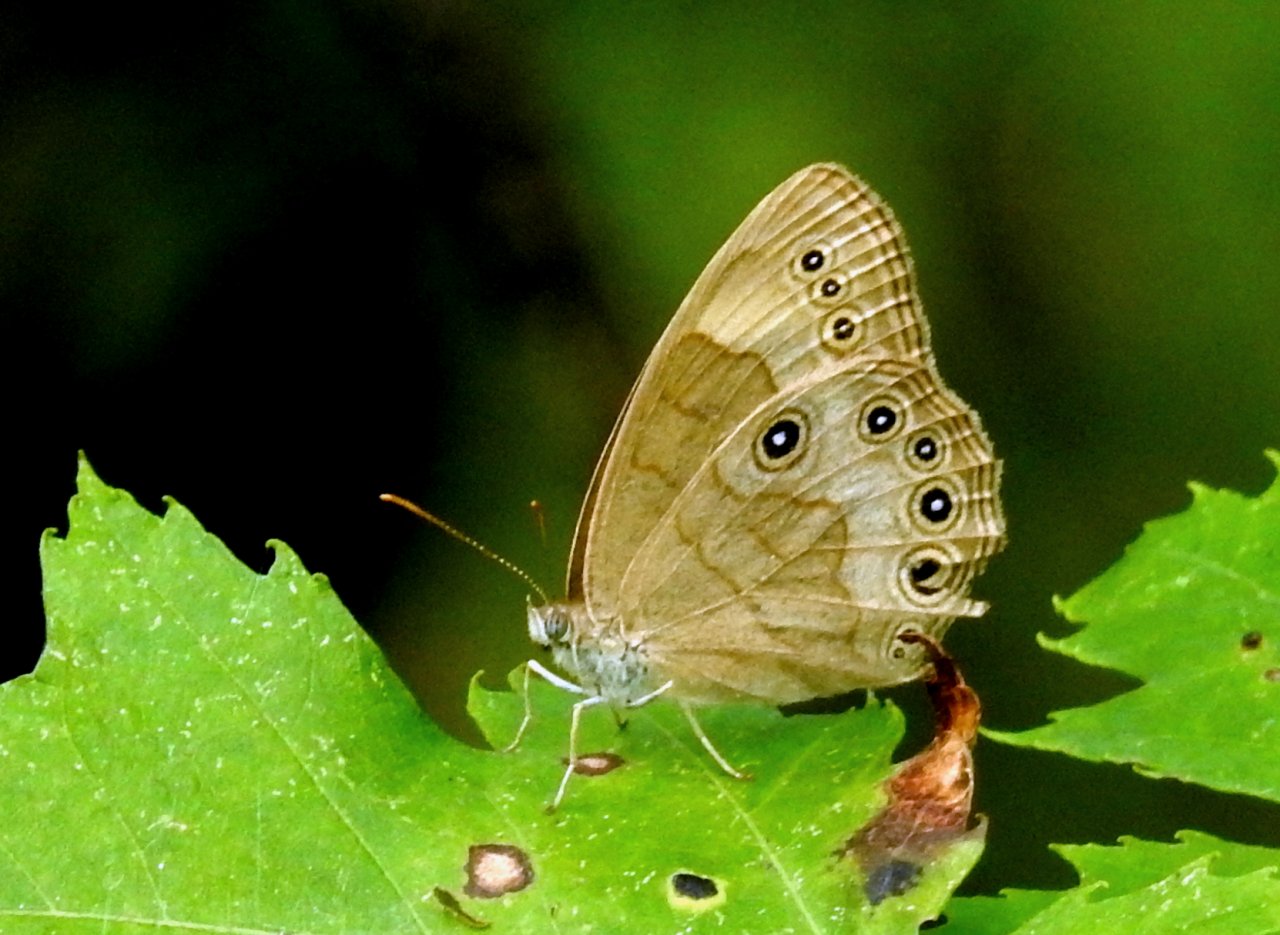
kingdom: Animalia
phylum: Arthropoda
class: Insecta
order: Lepidoptera
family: Nymphalidae
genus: Lethe
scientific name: Lethe eurydice
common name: Appalachian Eyed Brown
